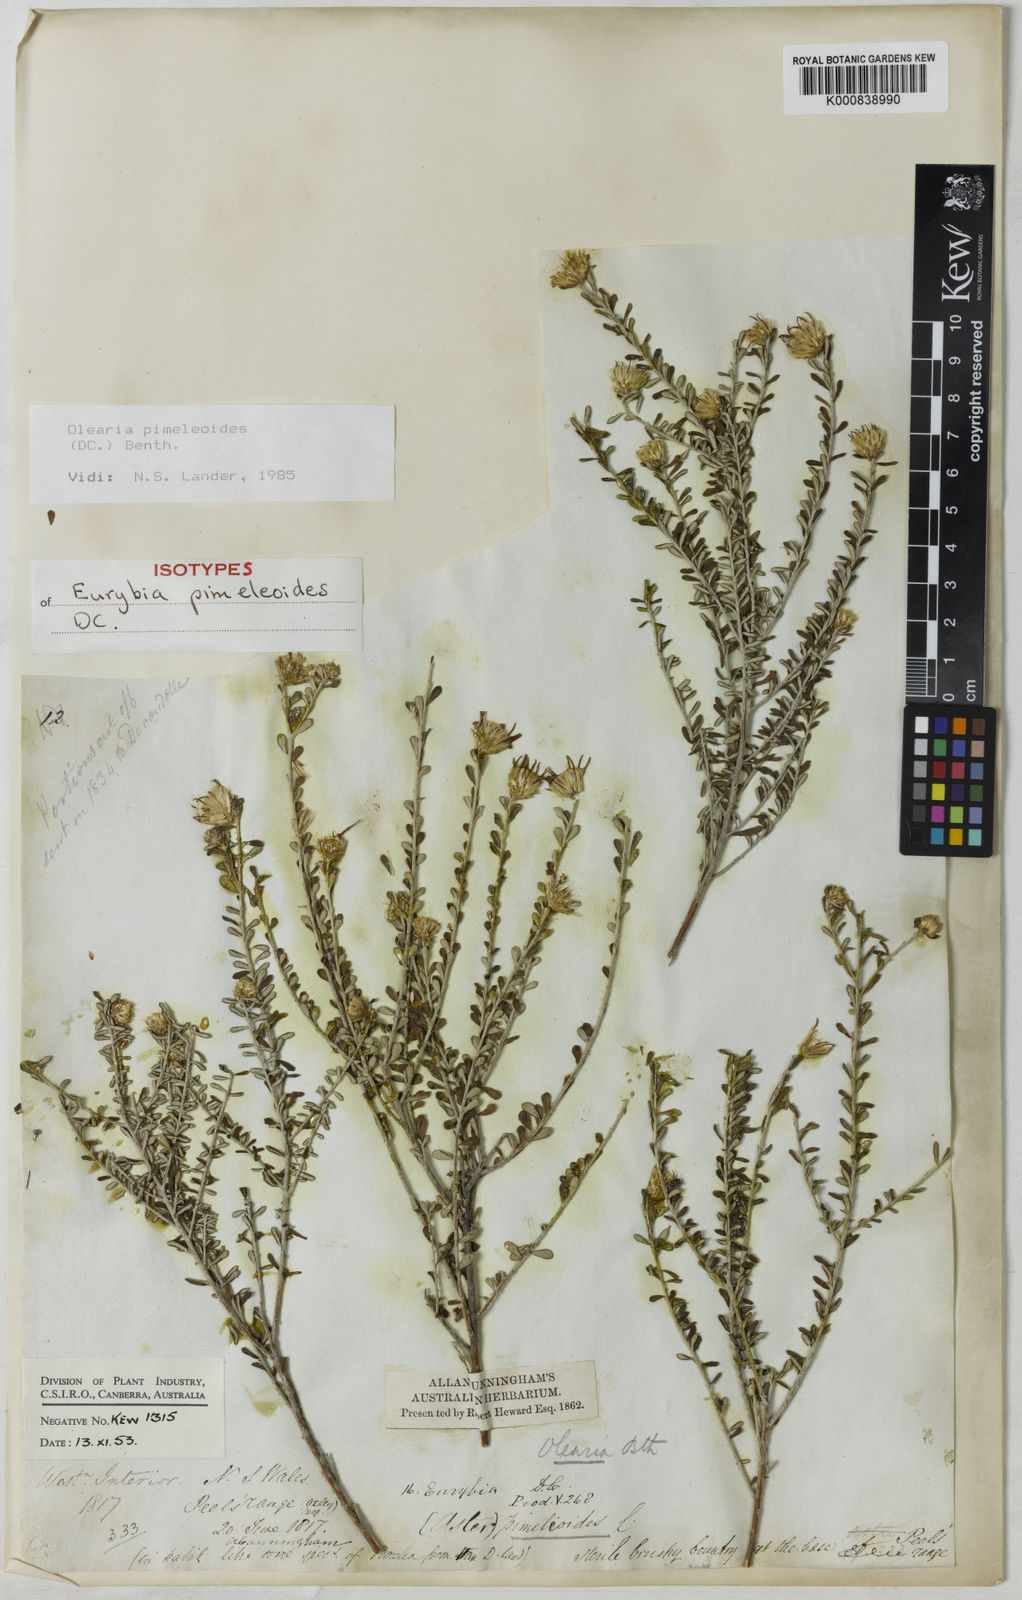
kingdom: Plantae
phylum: Tracheophyta
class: Magnoliopsida
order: Asterales
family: Asteraceae
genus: Olearia
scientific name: Olearia pimeleoides
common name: Showy daisybush
